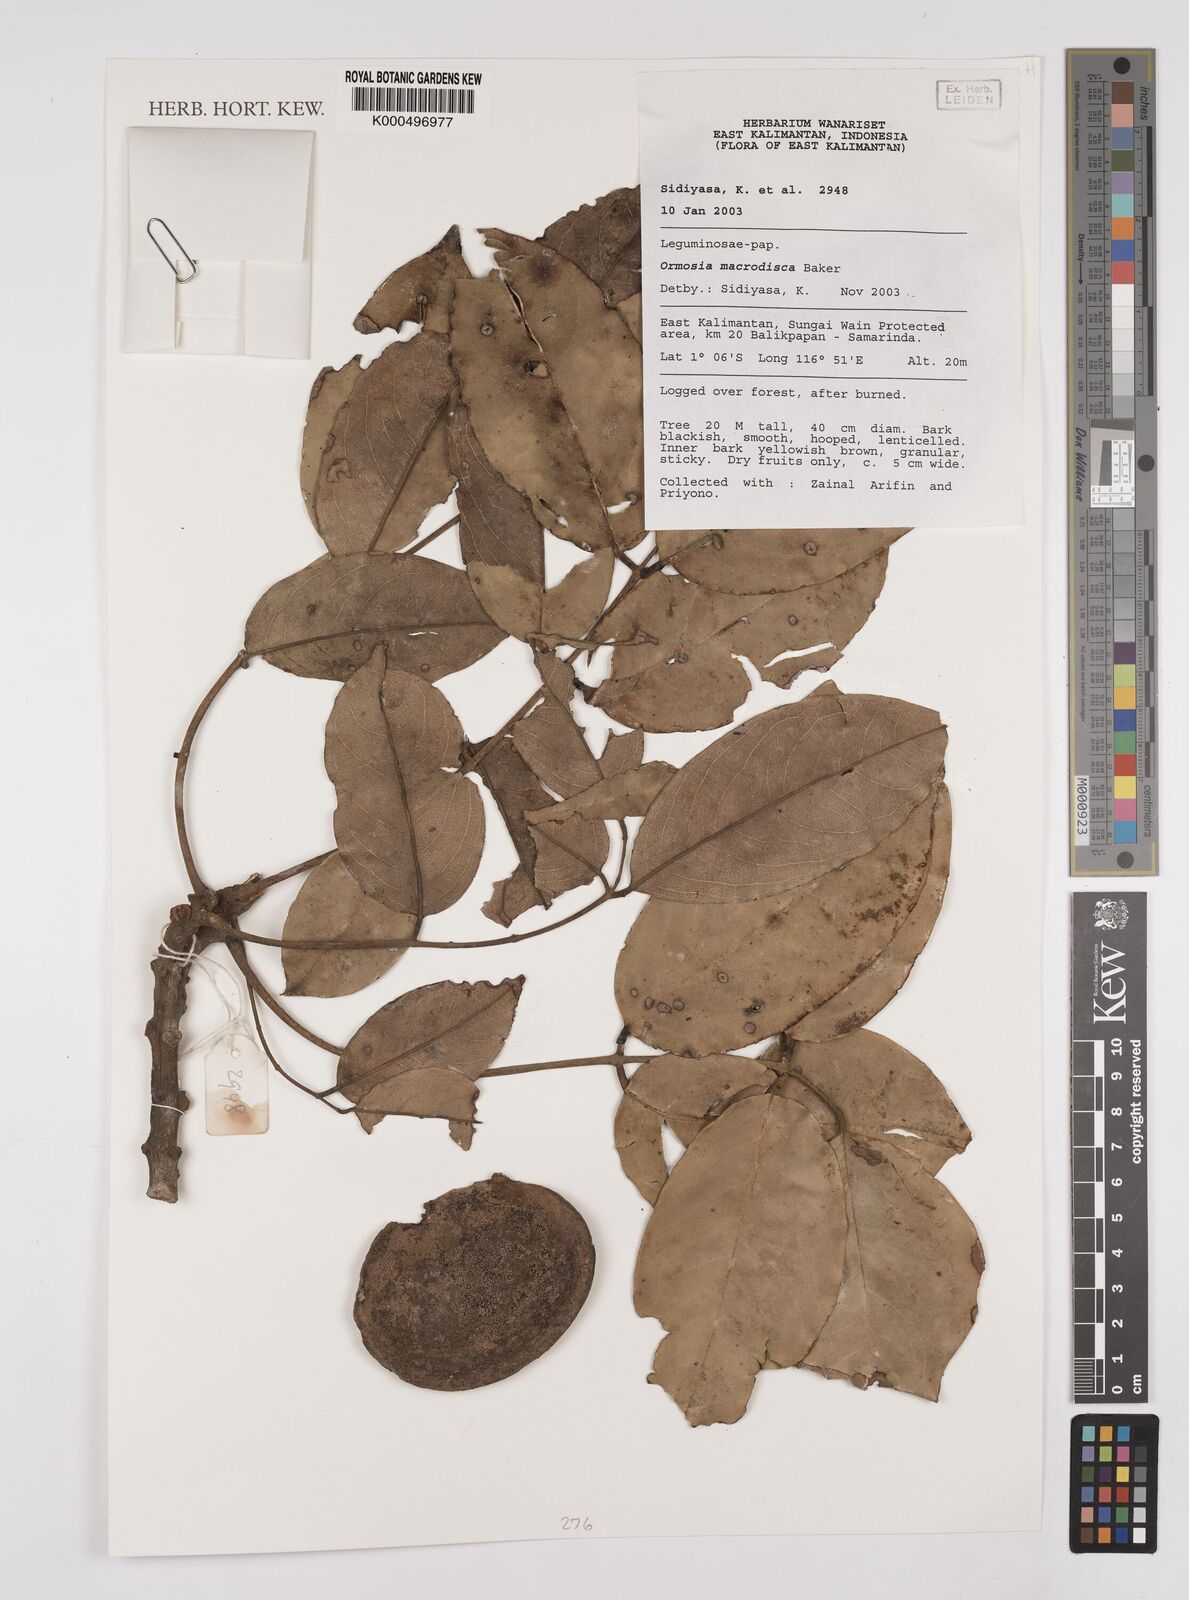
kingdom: Plantae
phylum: Tracheophyta
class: Magnoliopsida
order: Fabales
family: Fabaceae
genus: Ormosia
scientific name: Ormosia macrodisca
